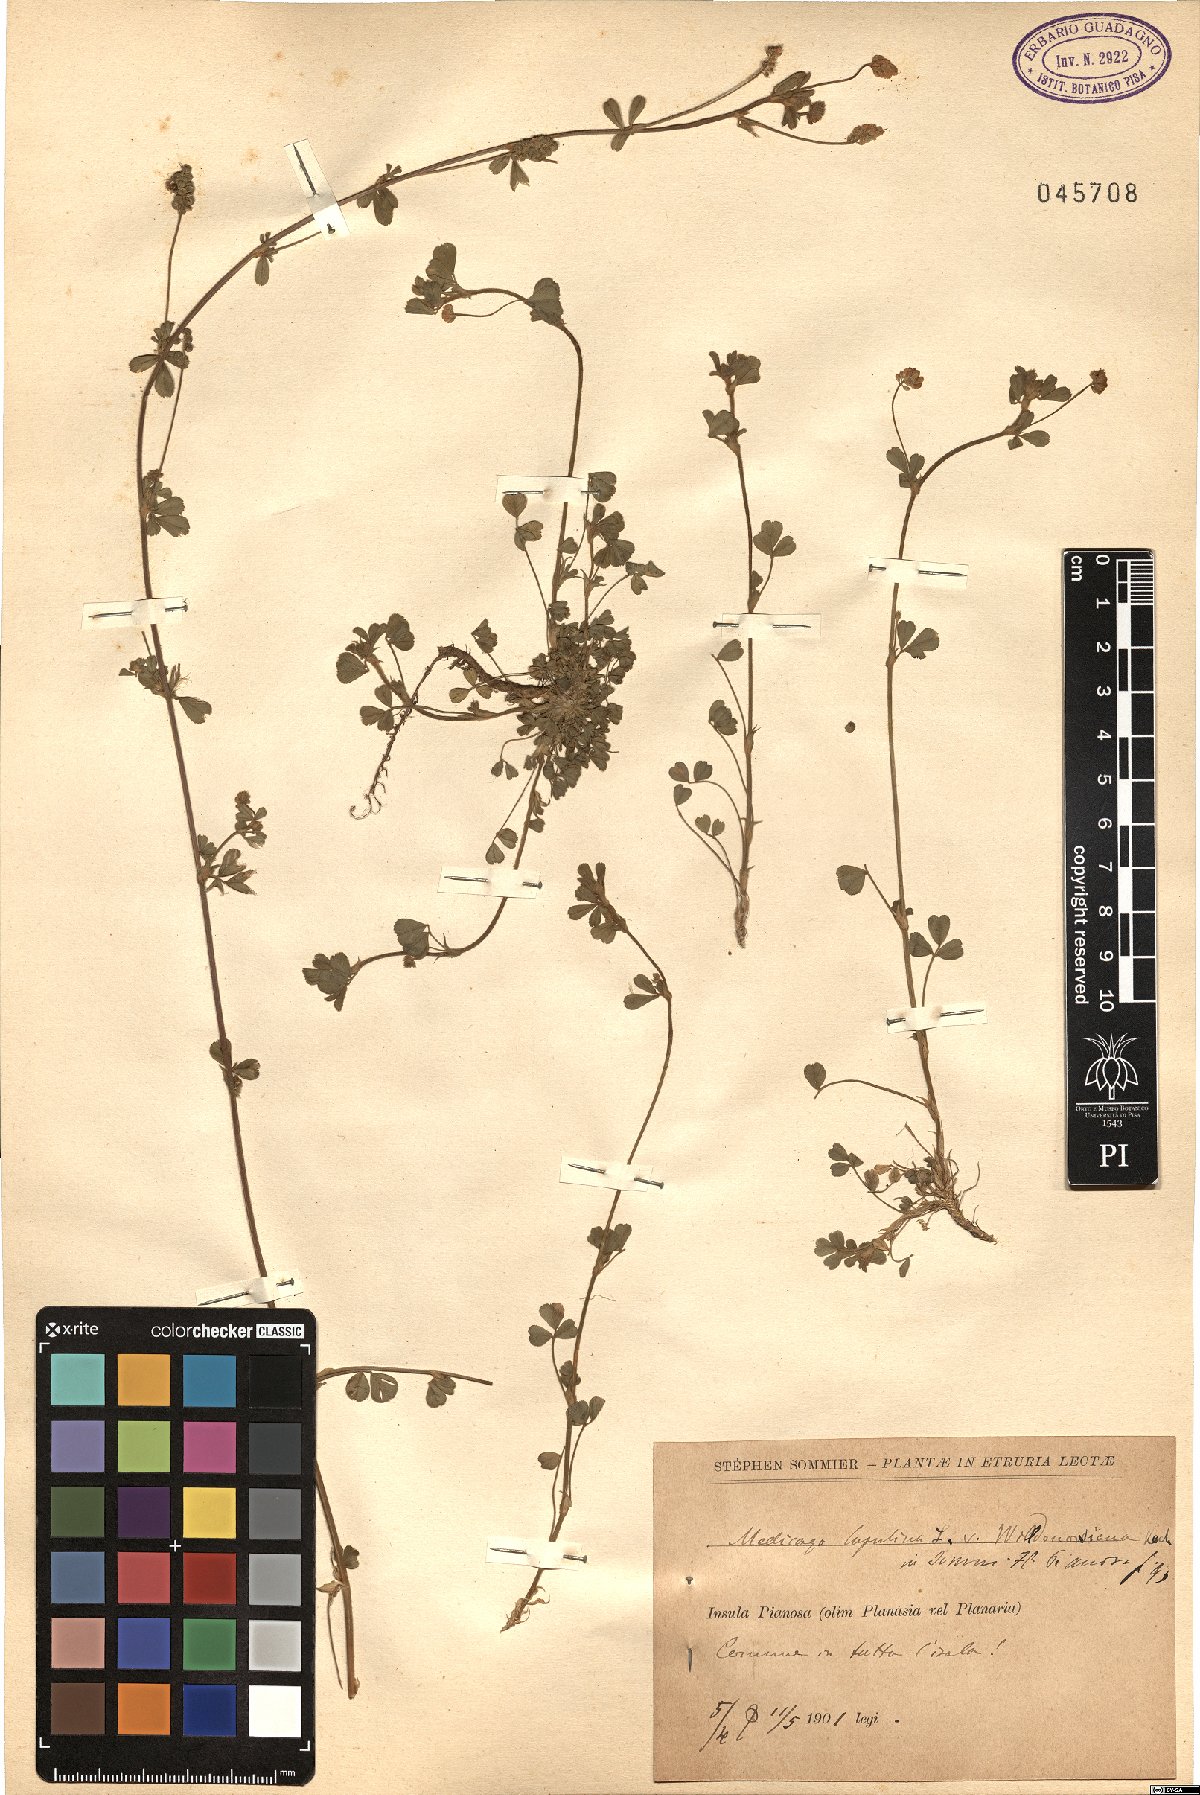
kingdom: Plantae
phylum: Tracheophyta
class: Magnoliopsida
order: Fabales
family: Fabaceae
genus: Medicago
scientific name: Medicago lupulina
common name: Black medick
